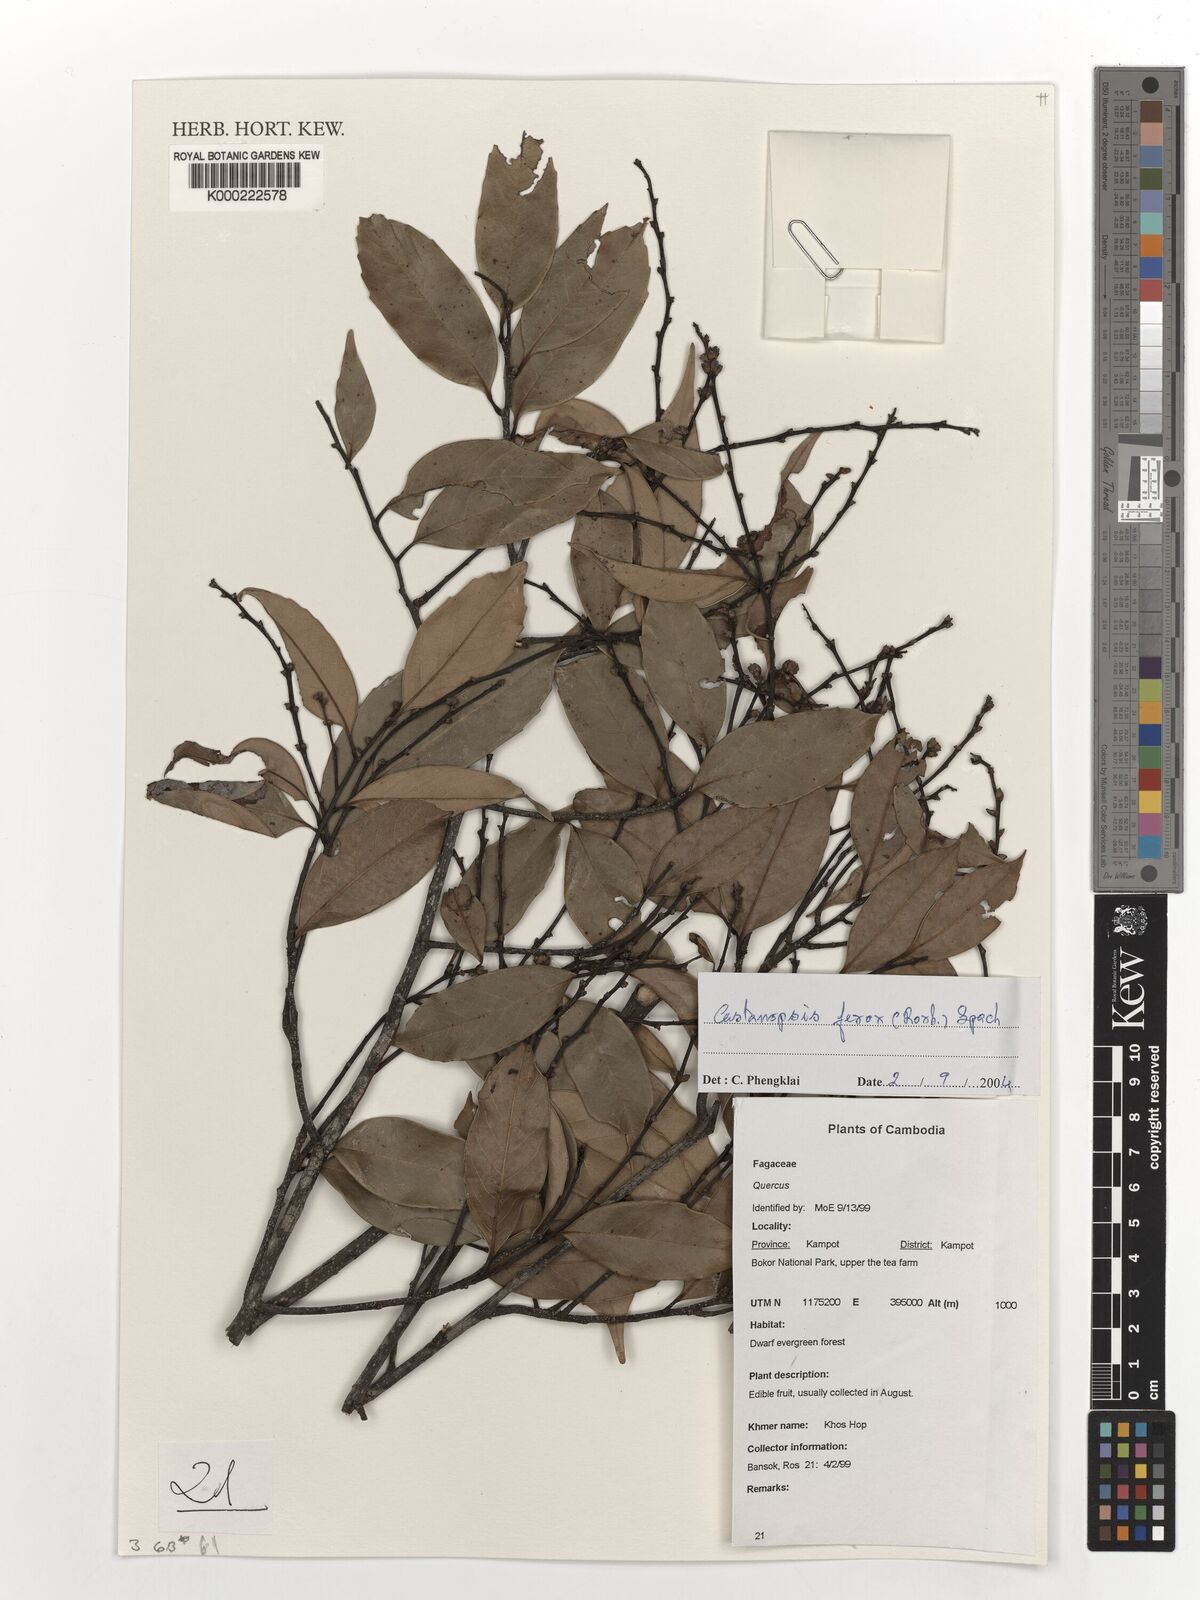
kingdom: Plantae
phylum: Tracheophyta
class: Magnoliopsida
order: Fagales
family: Fagaceae
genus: Castanopsis
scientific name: Castanopsis ferox
